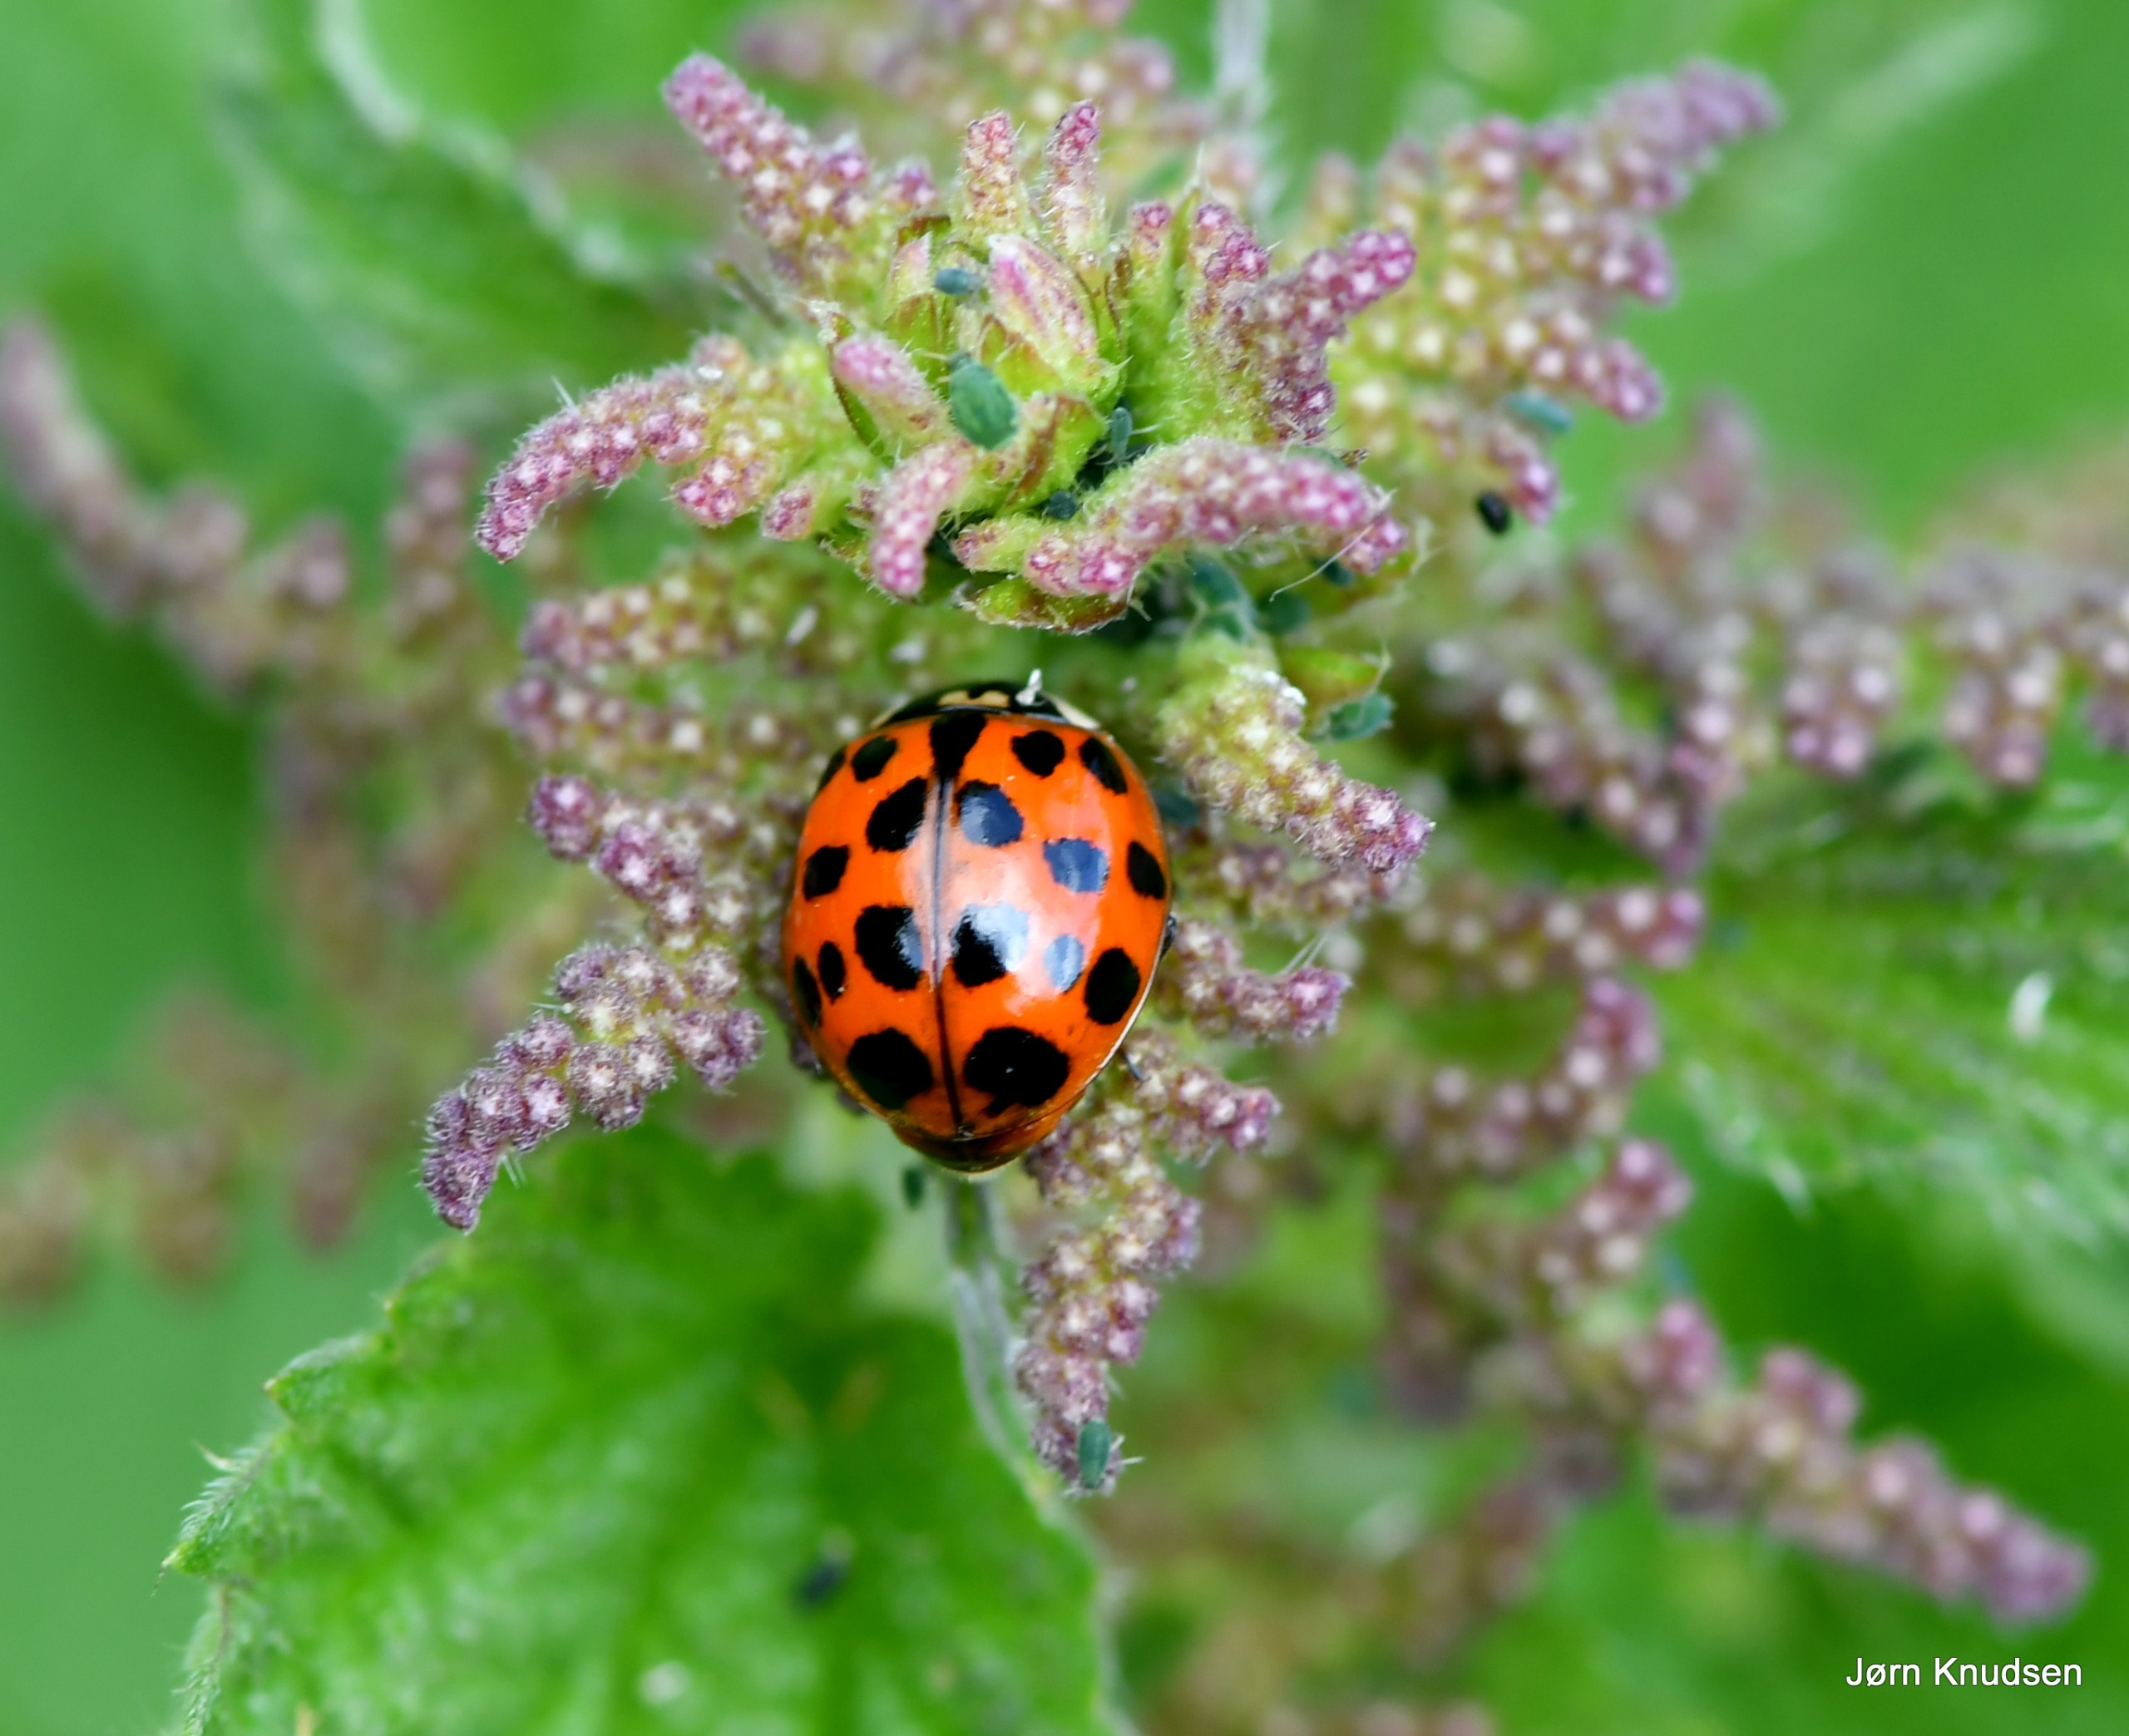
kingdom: Animalia
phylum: Arthropoda
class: Insecta
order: Coleoptera
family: Coccinellidae
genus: Harmonia
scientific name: Harmonia axyridis
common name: Harlekinmariehøne
